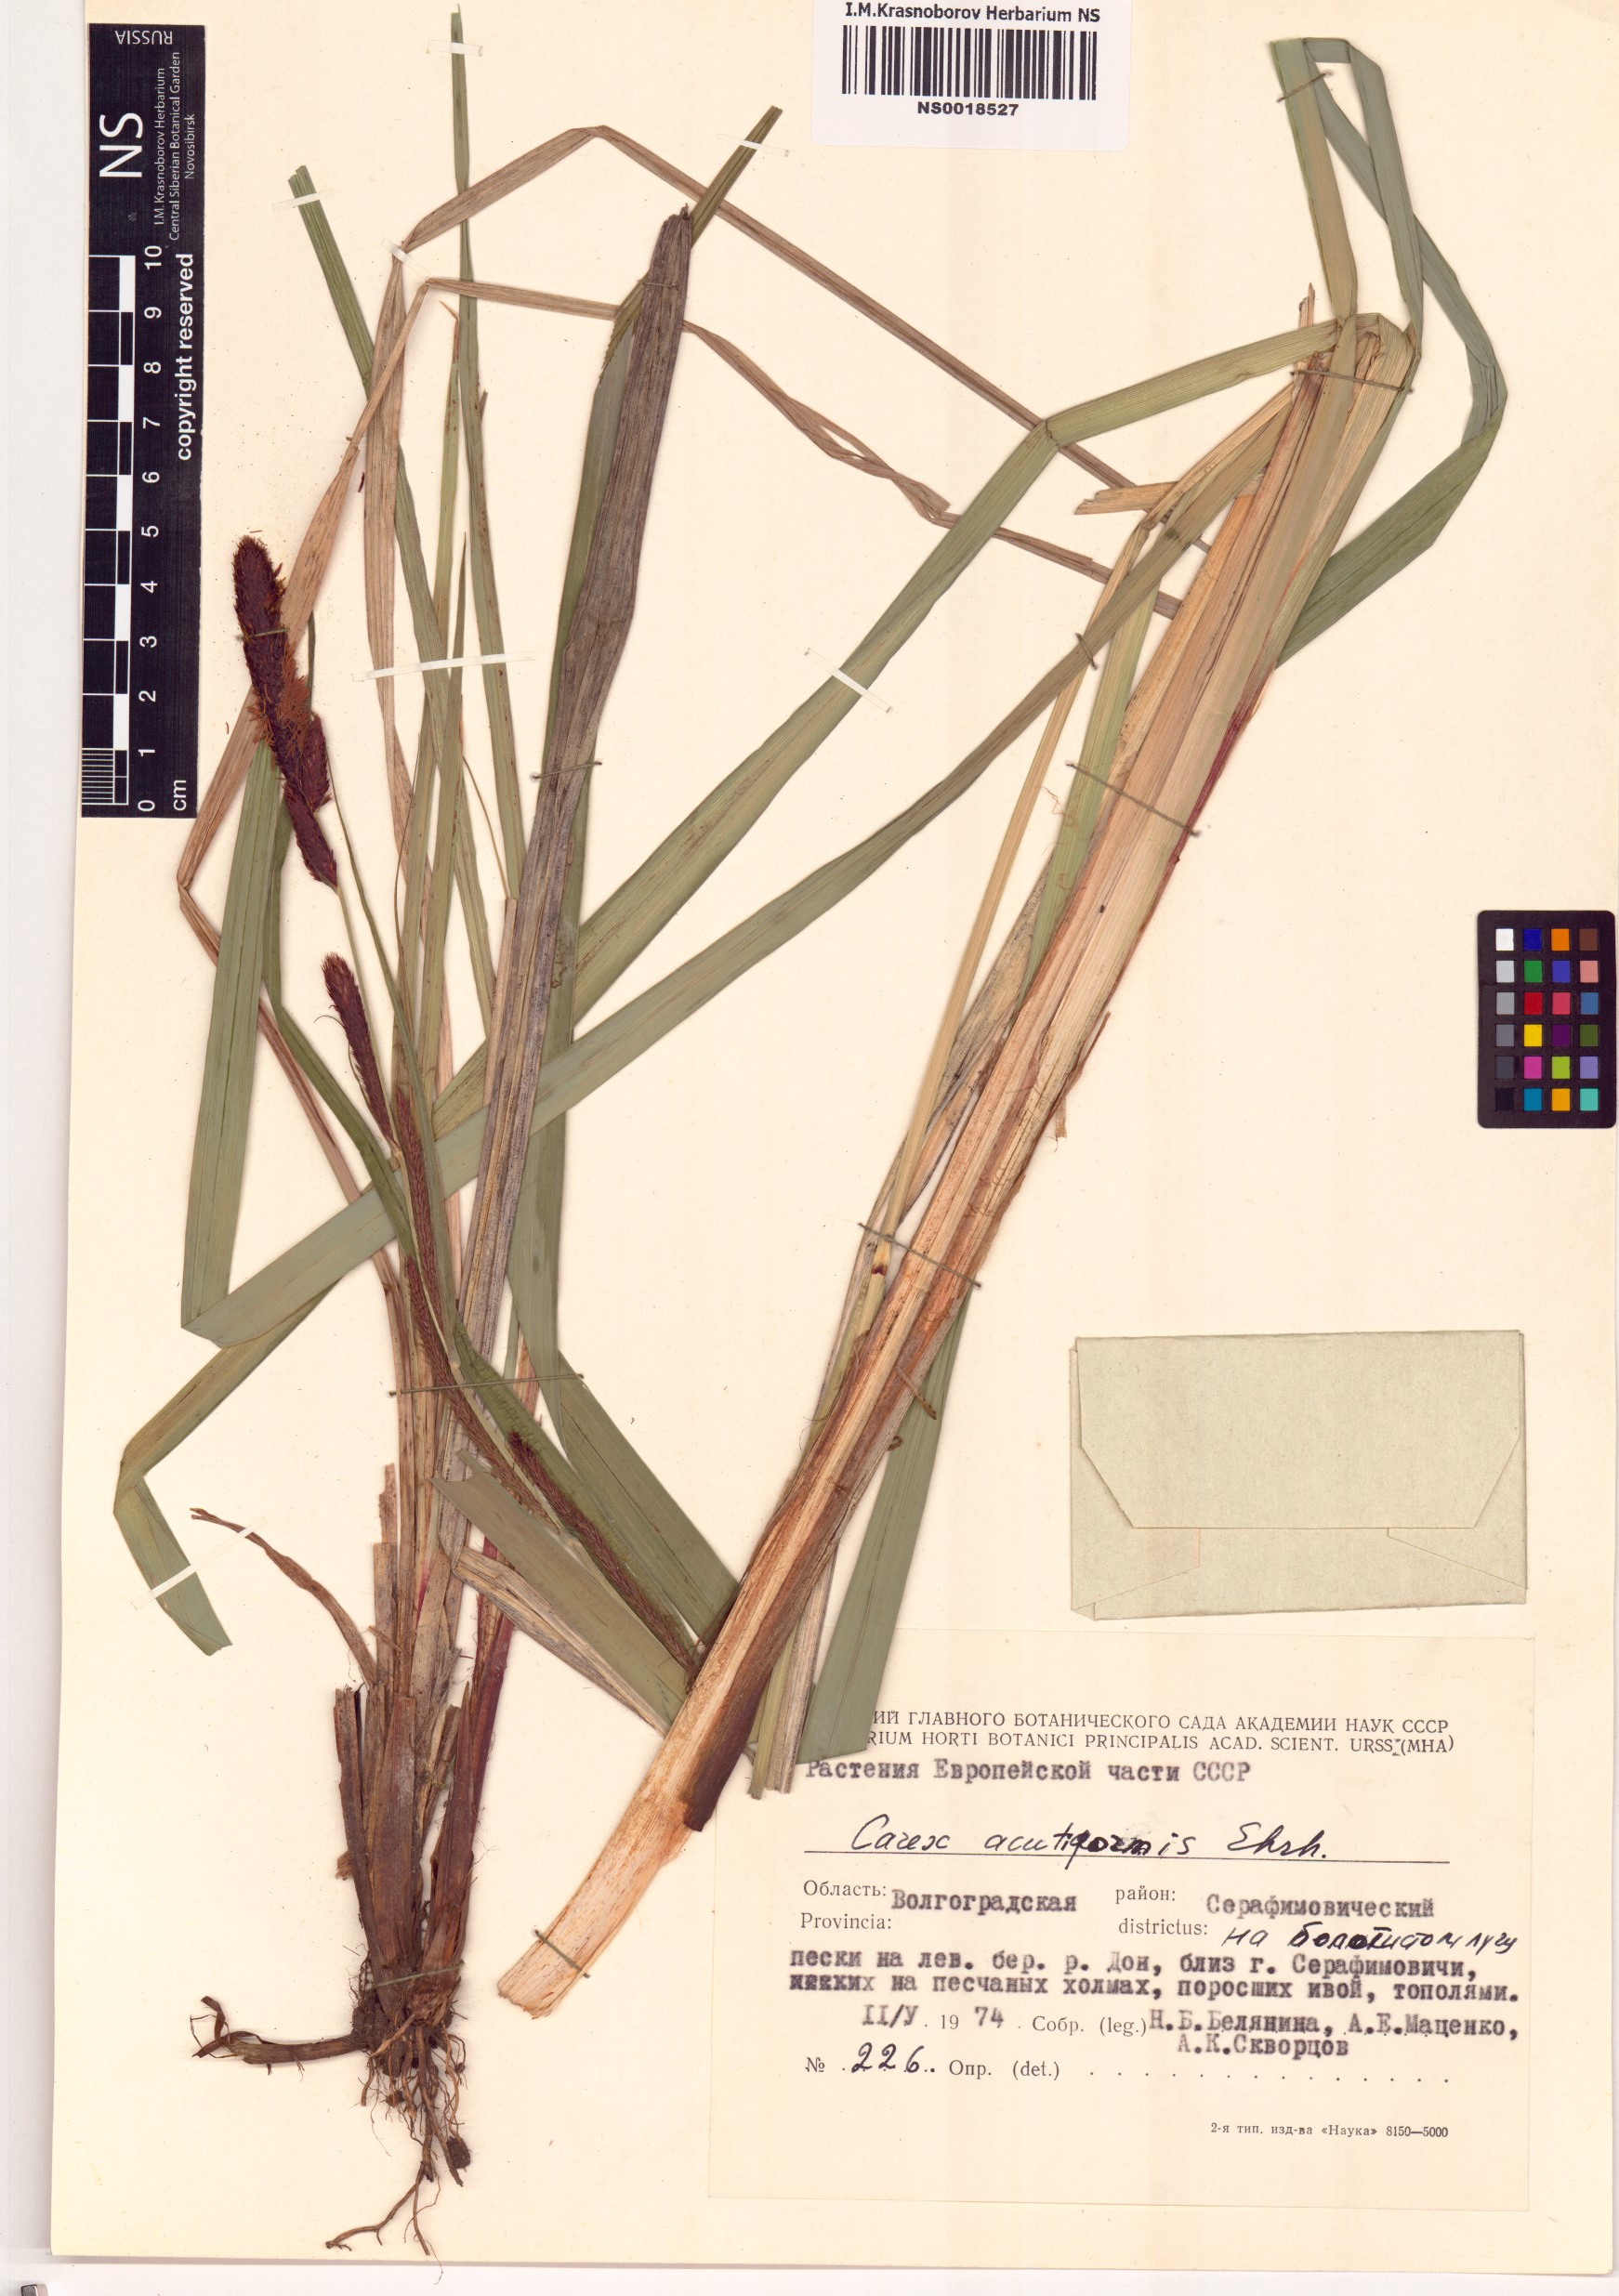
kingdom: Plantae
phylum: Tracheophyta
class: Liliopsida
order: Poales
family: Cyperaceae
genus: Carex
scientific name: Carex acutiformis
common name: Lesser pond-sedge
